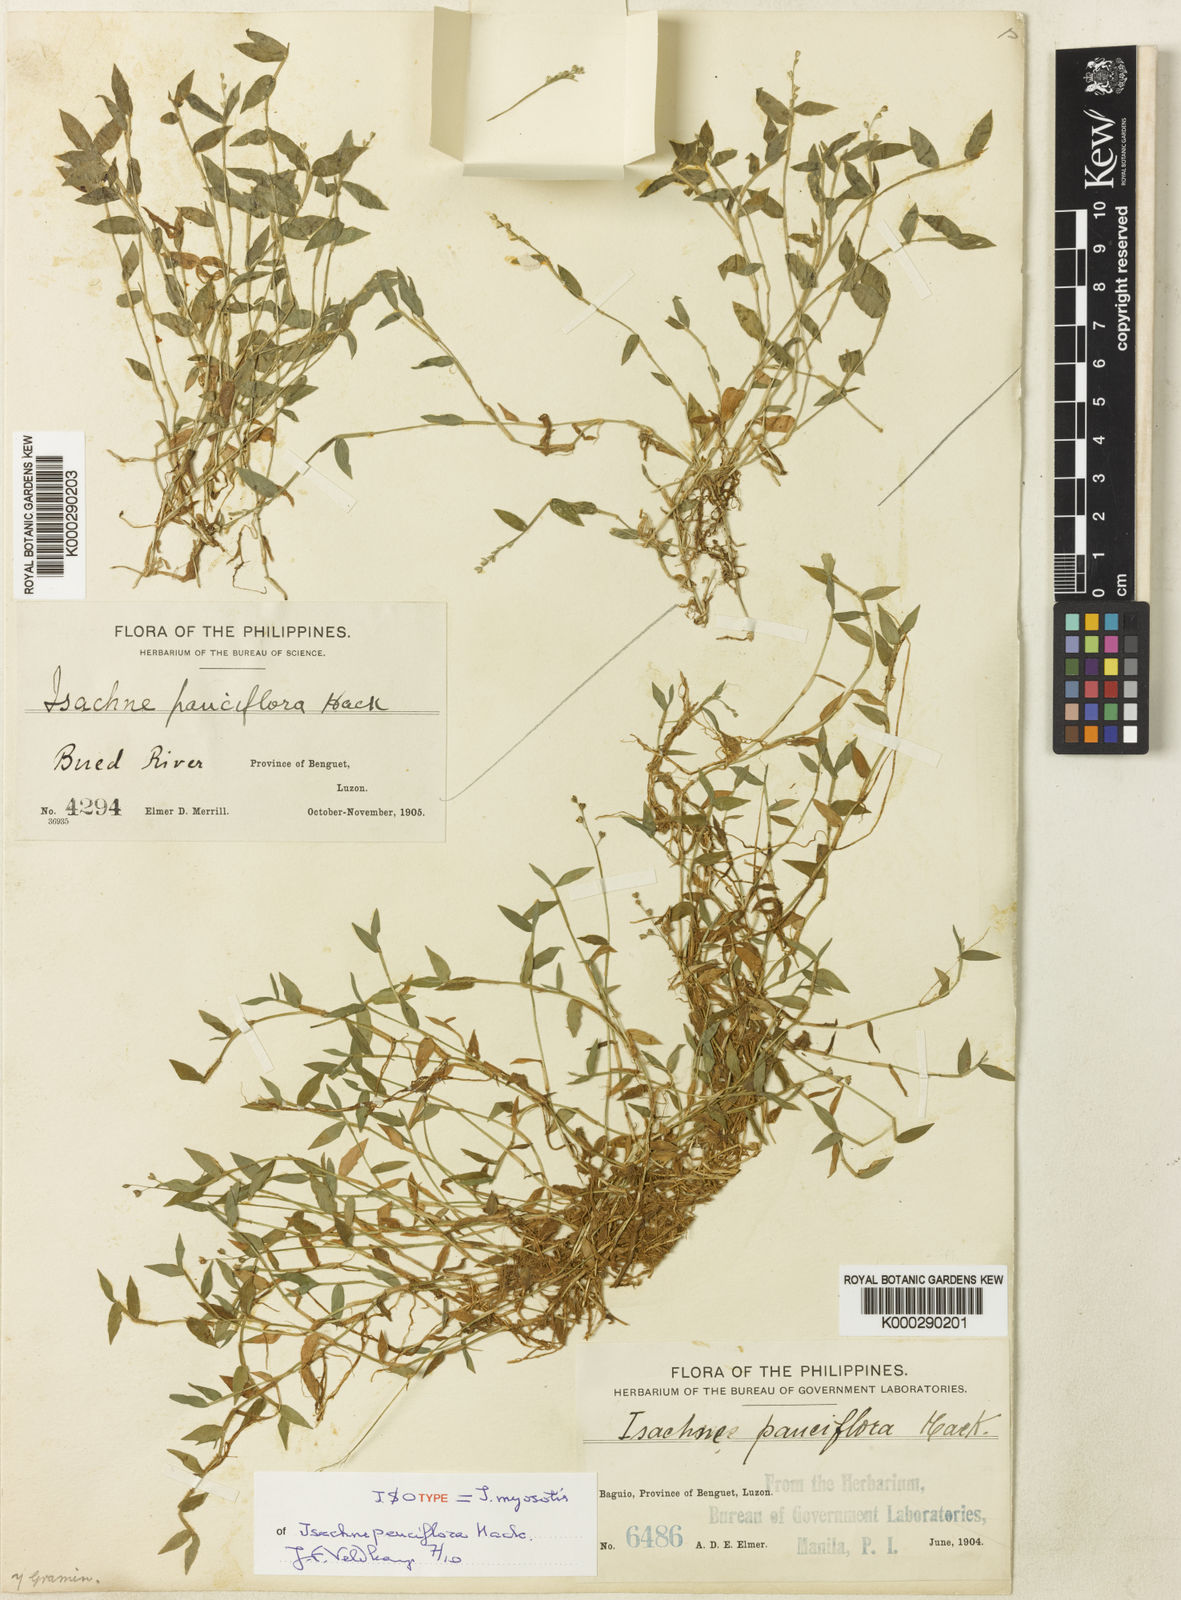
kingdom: Plantae
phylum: Tracheophyta
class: Liliopsida
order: Poales
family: Poaceae
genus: Isachne
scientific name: Isachne myosotis
